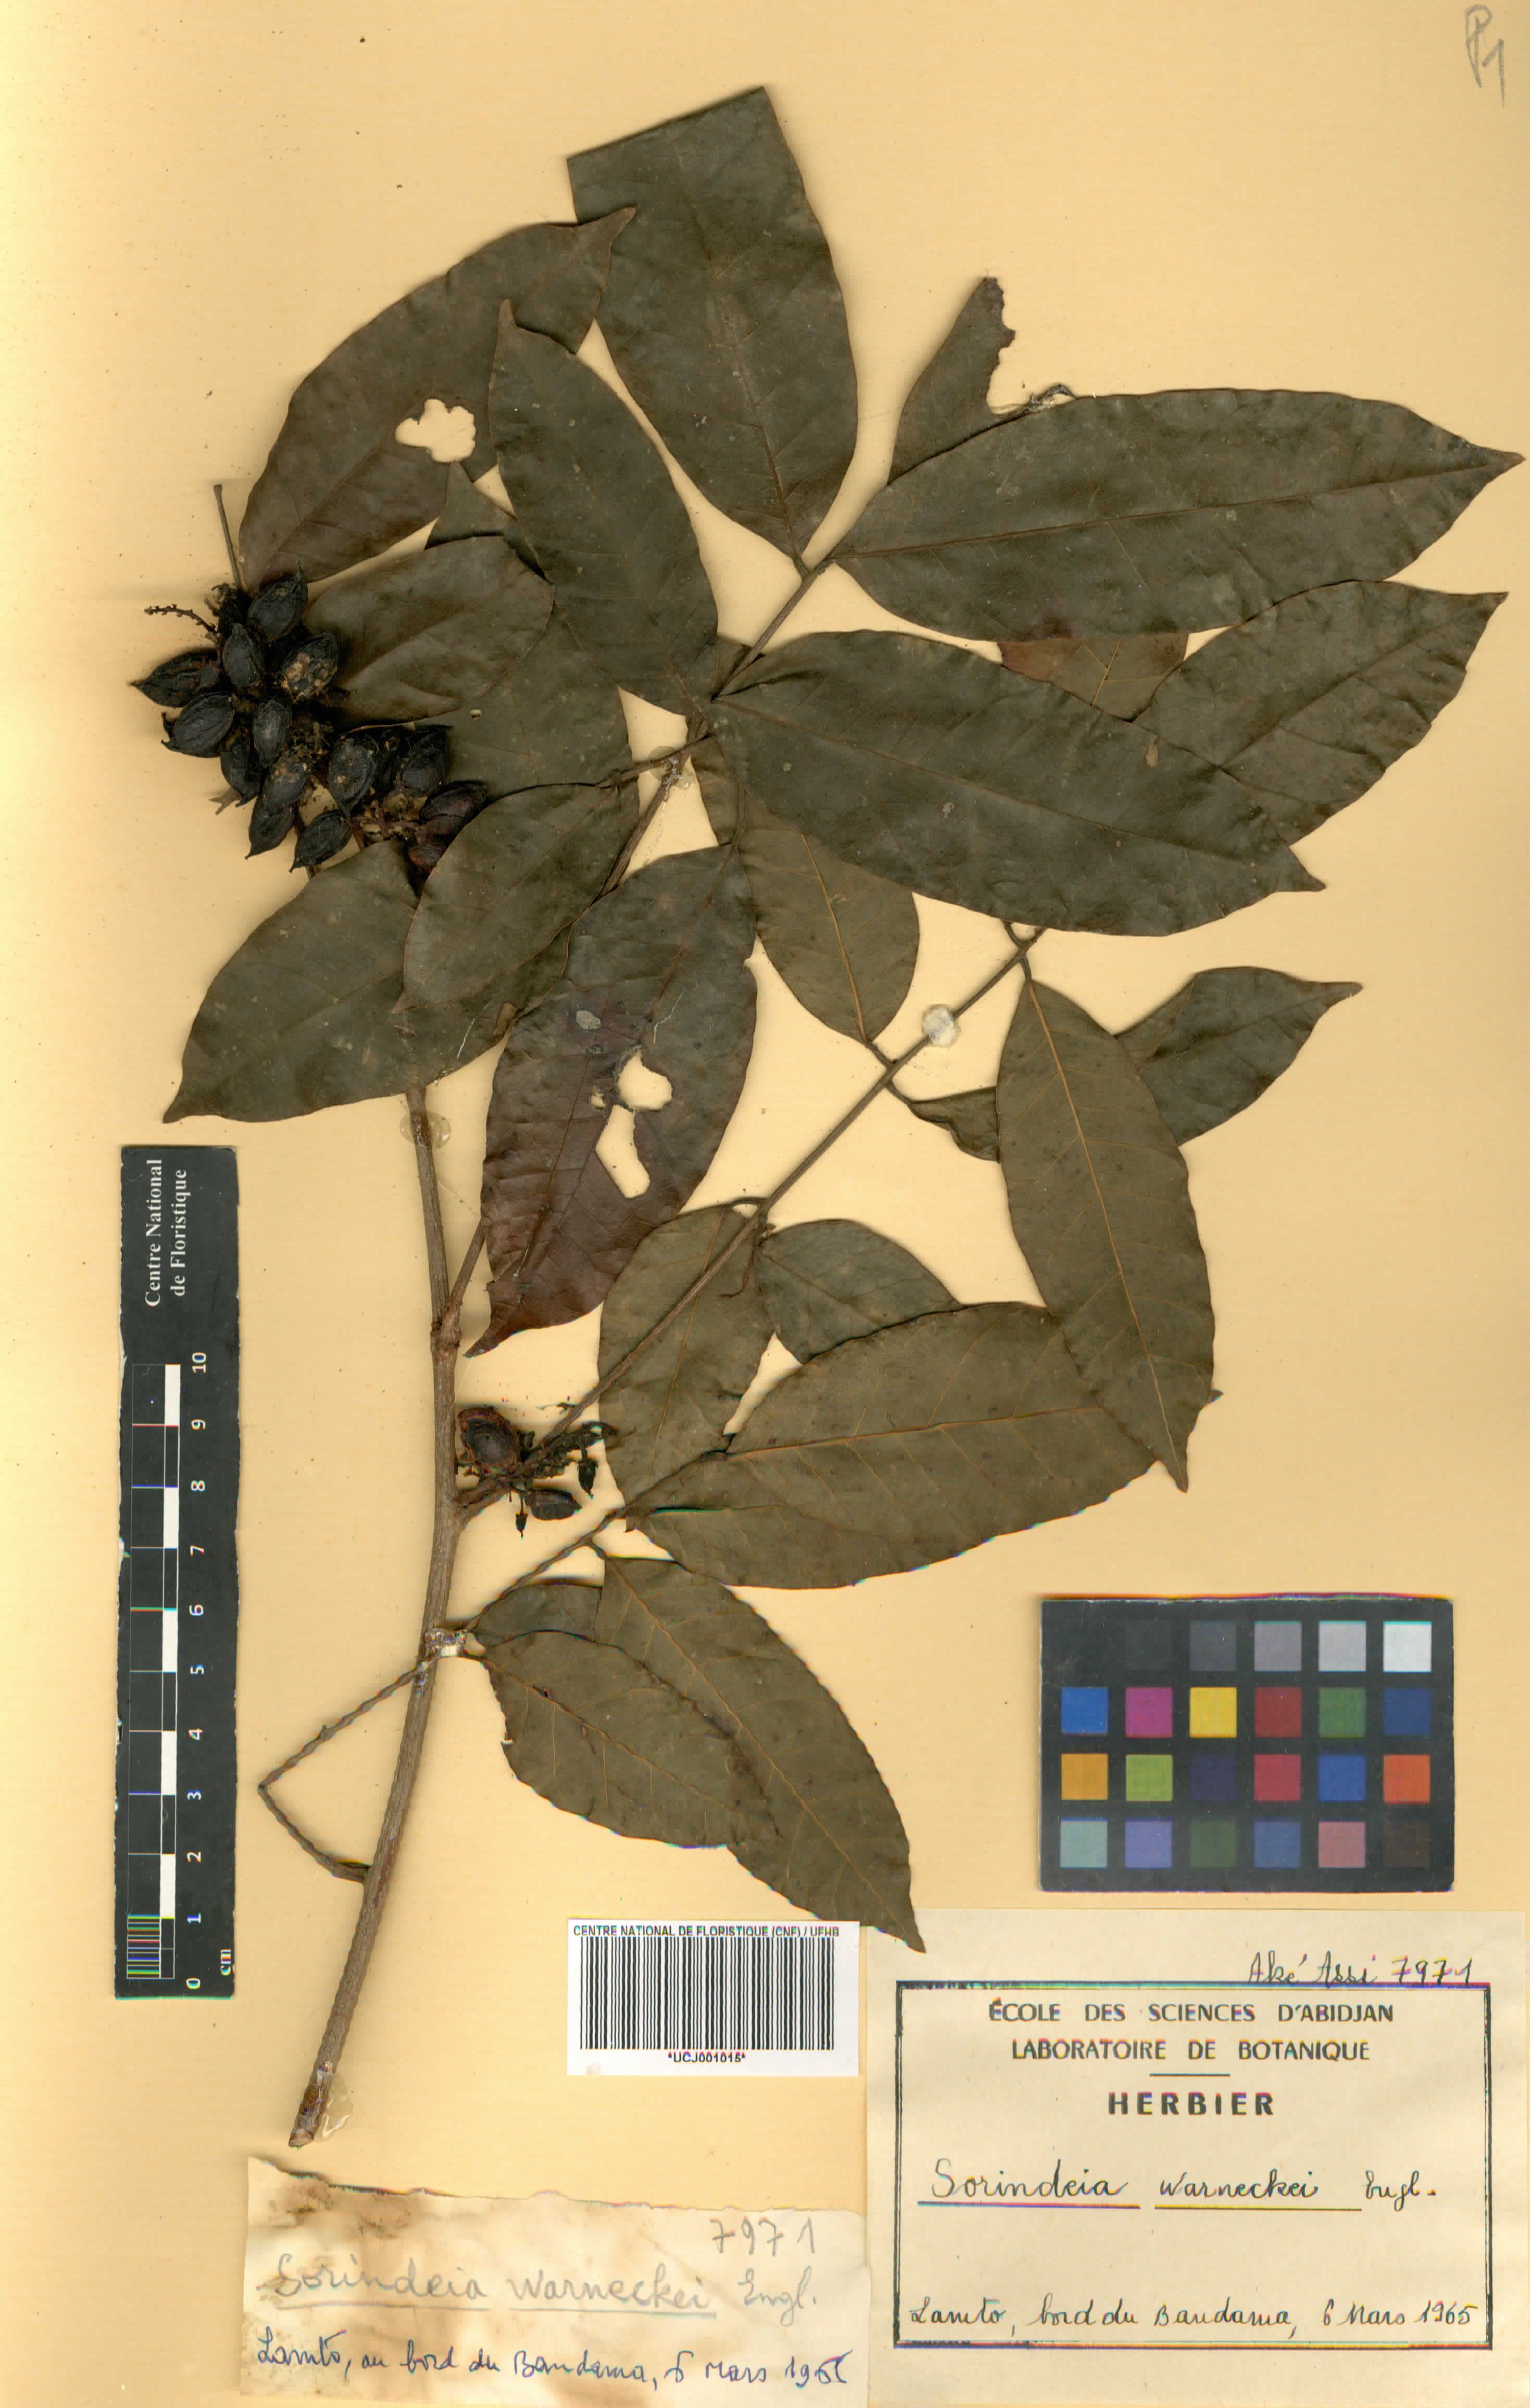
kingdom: Plantae
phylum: Tracheophyta
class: Magnoliopsida
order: Sapindales
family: Anacardiaceae
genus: Sorindeia
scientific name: Sorindeia grandifolia
